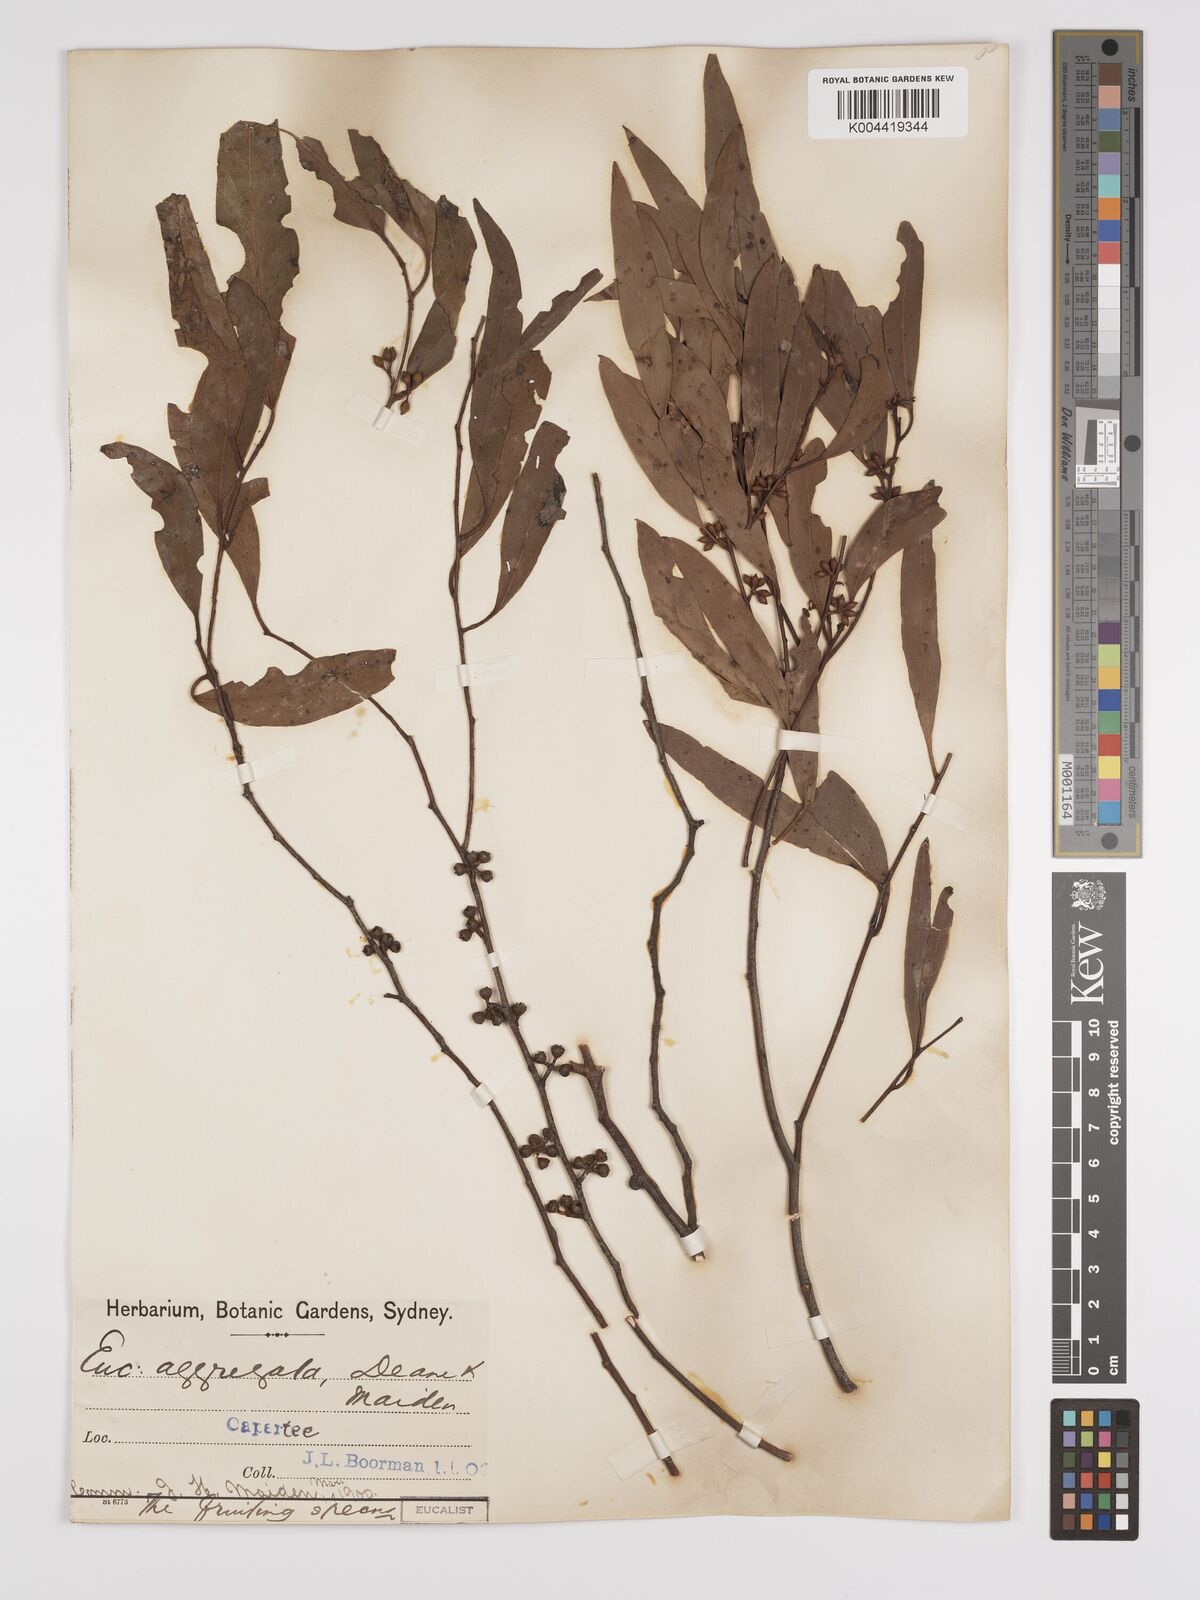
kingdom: Plantae
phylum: Tracheophyta
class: Magnoliopsida
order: Myrtales
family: Myrtaceae
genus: Eucalyptus
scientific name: Eucalyptus aggregata
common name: Black gum
